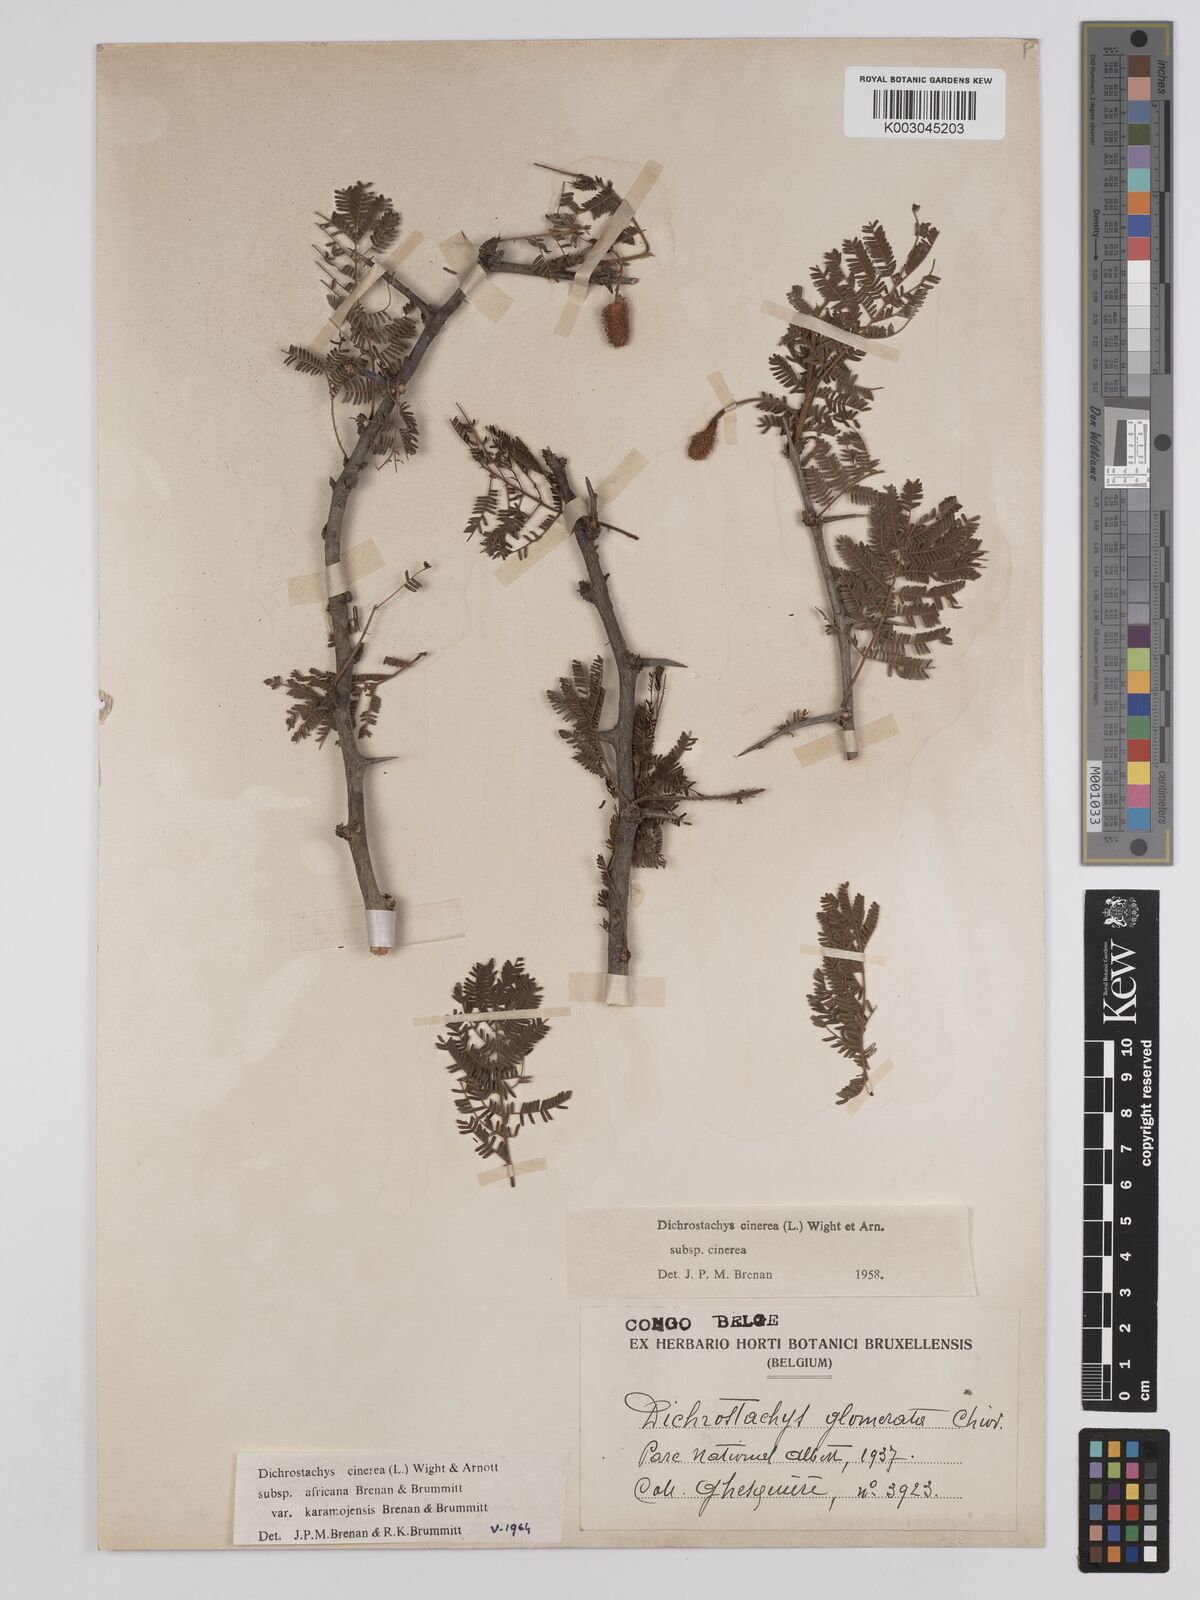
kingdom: Plantae
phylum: Tracheophyta
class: Magnoliopsida
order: Fabales
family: Fabaceae
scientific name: Fabaceae
